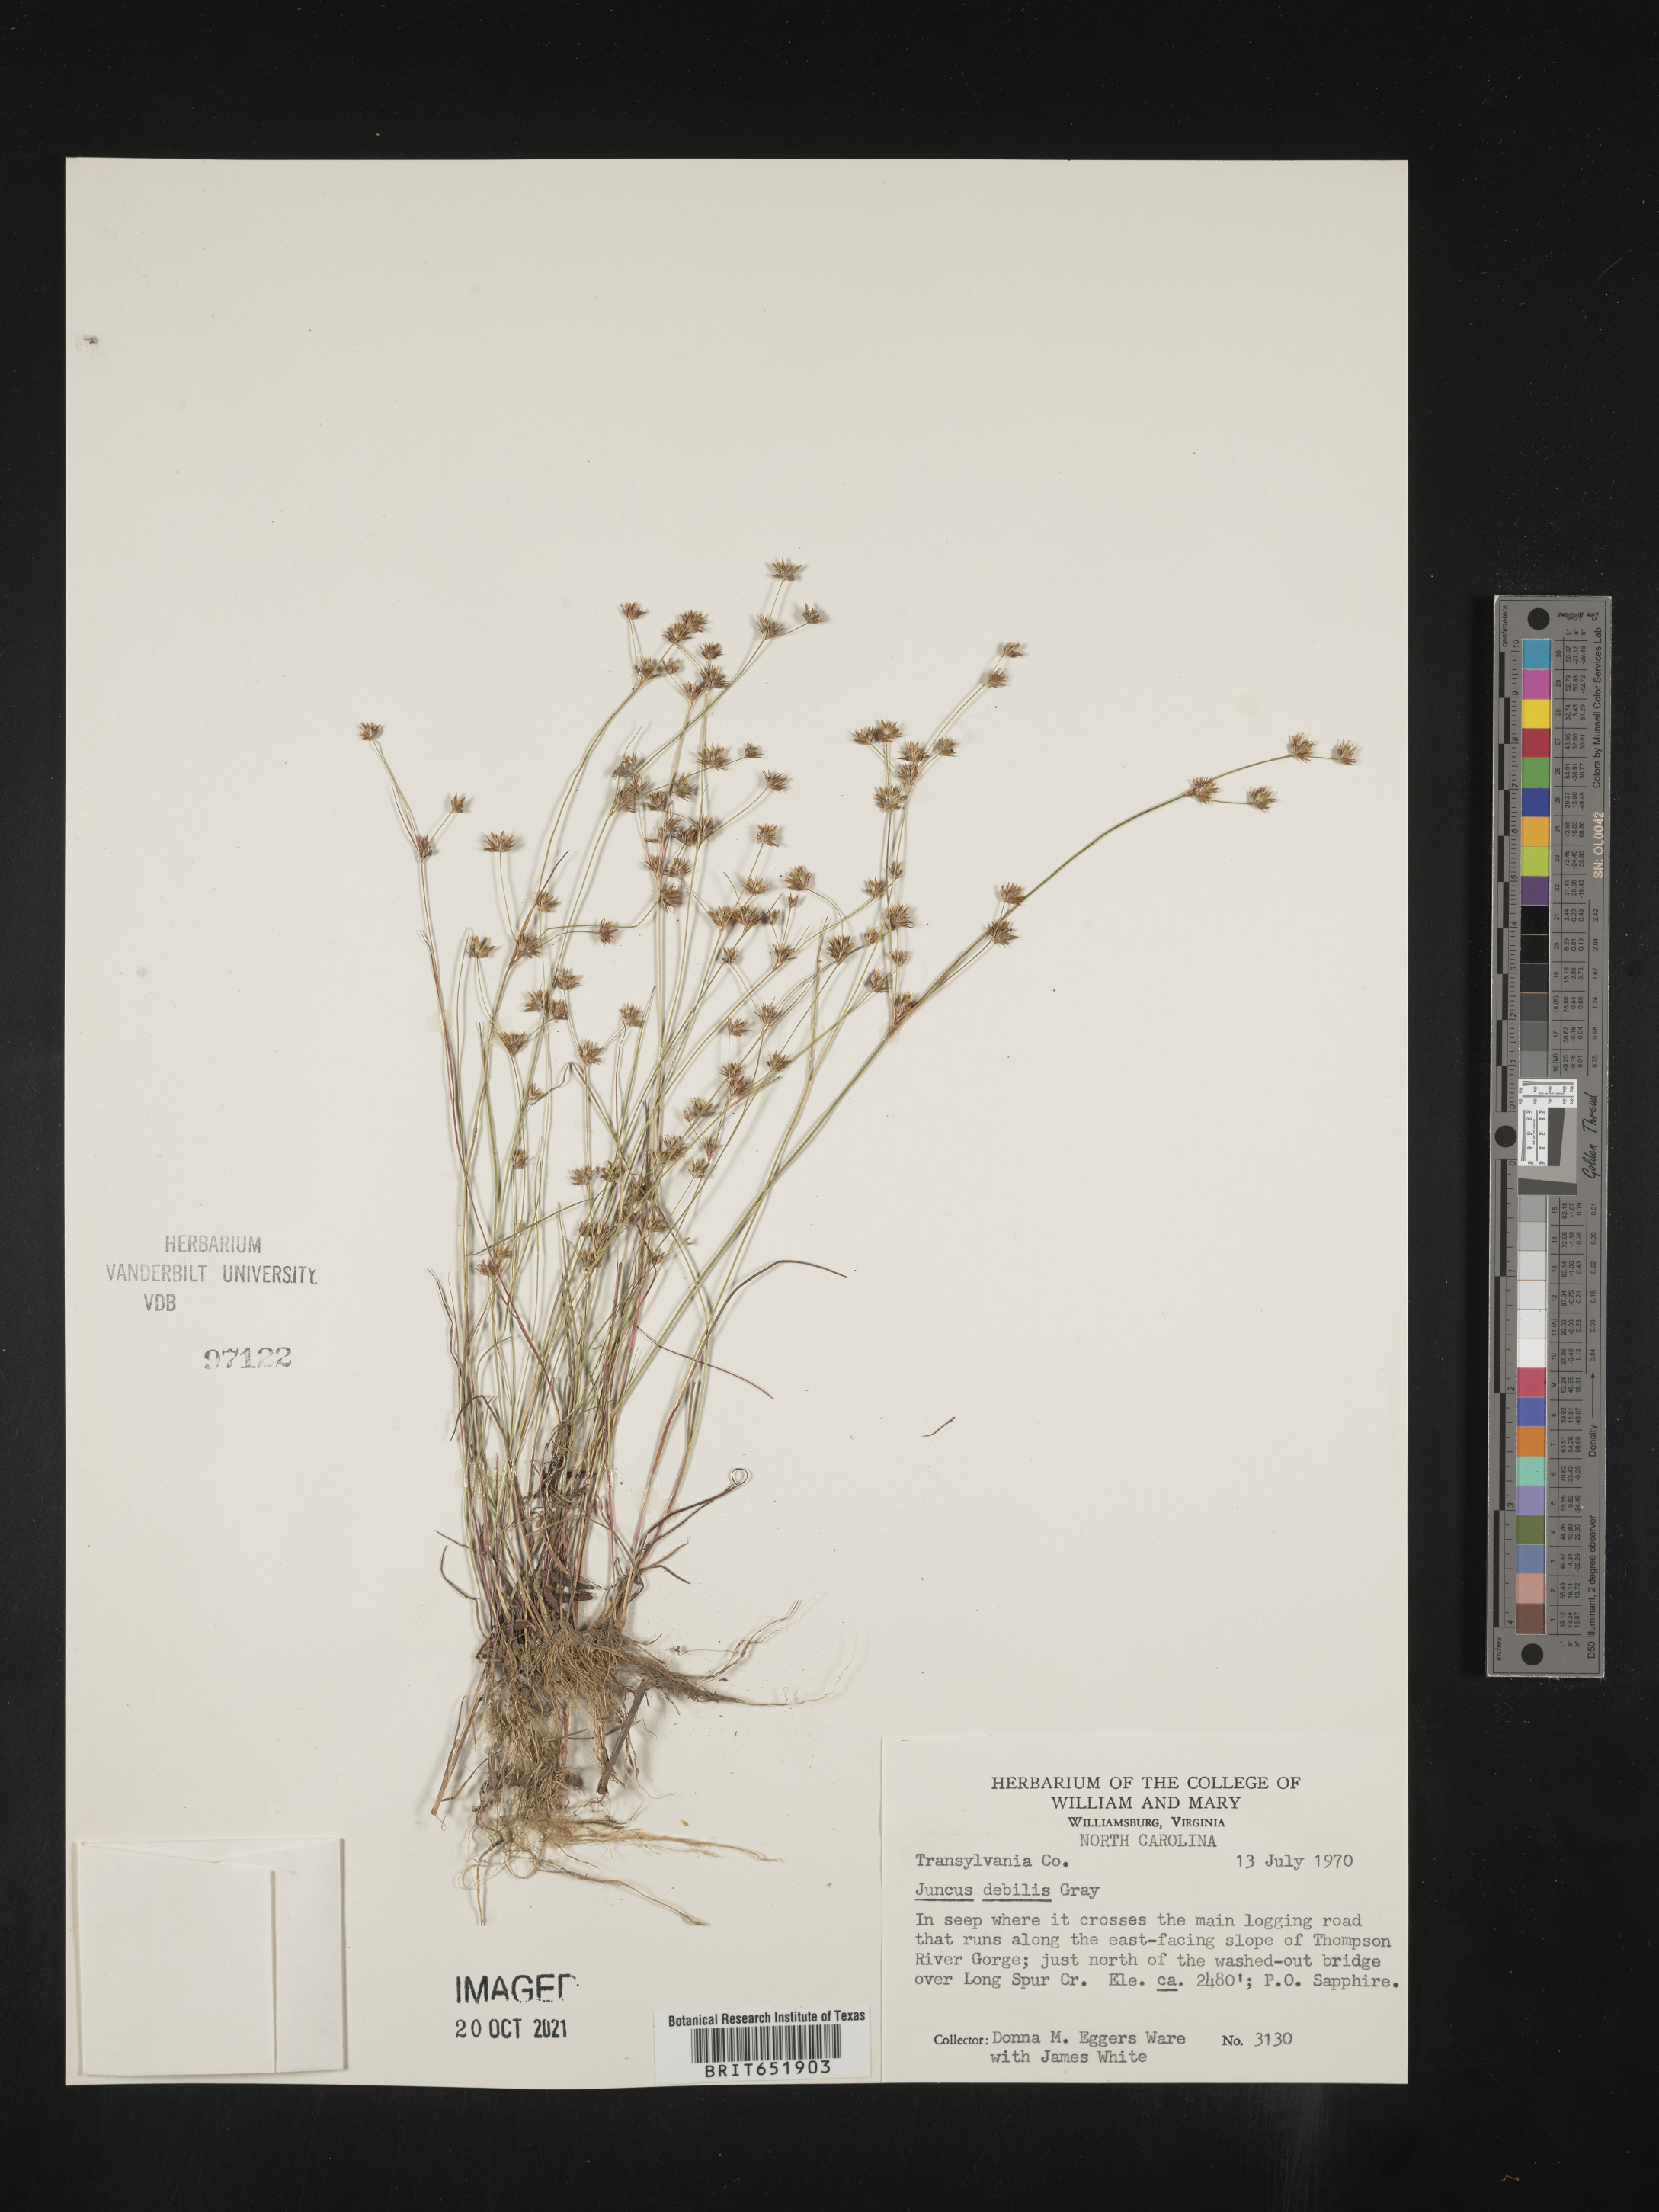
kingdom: Plantae
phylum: Tracheophyta
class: Liliopsida
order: Poales
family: Juncaceae
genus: Juncus
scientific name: Juncus debilis
